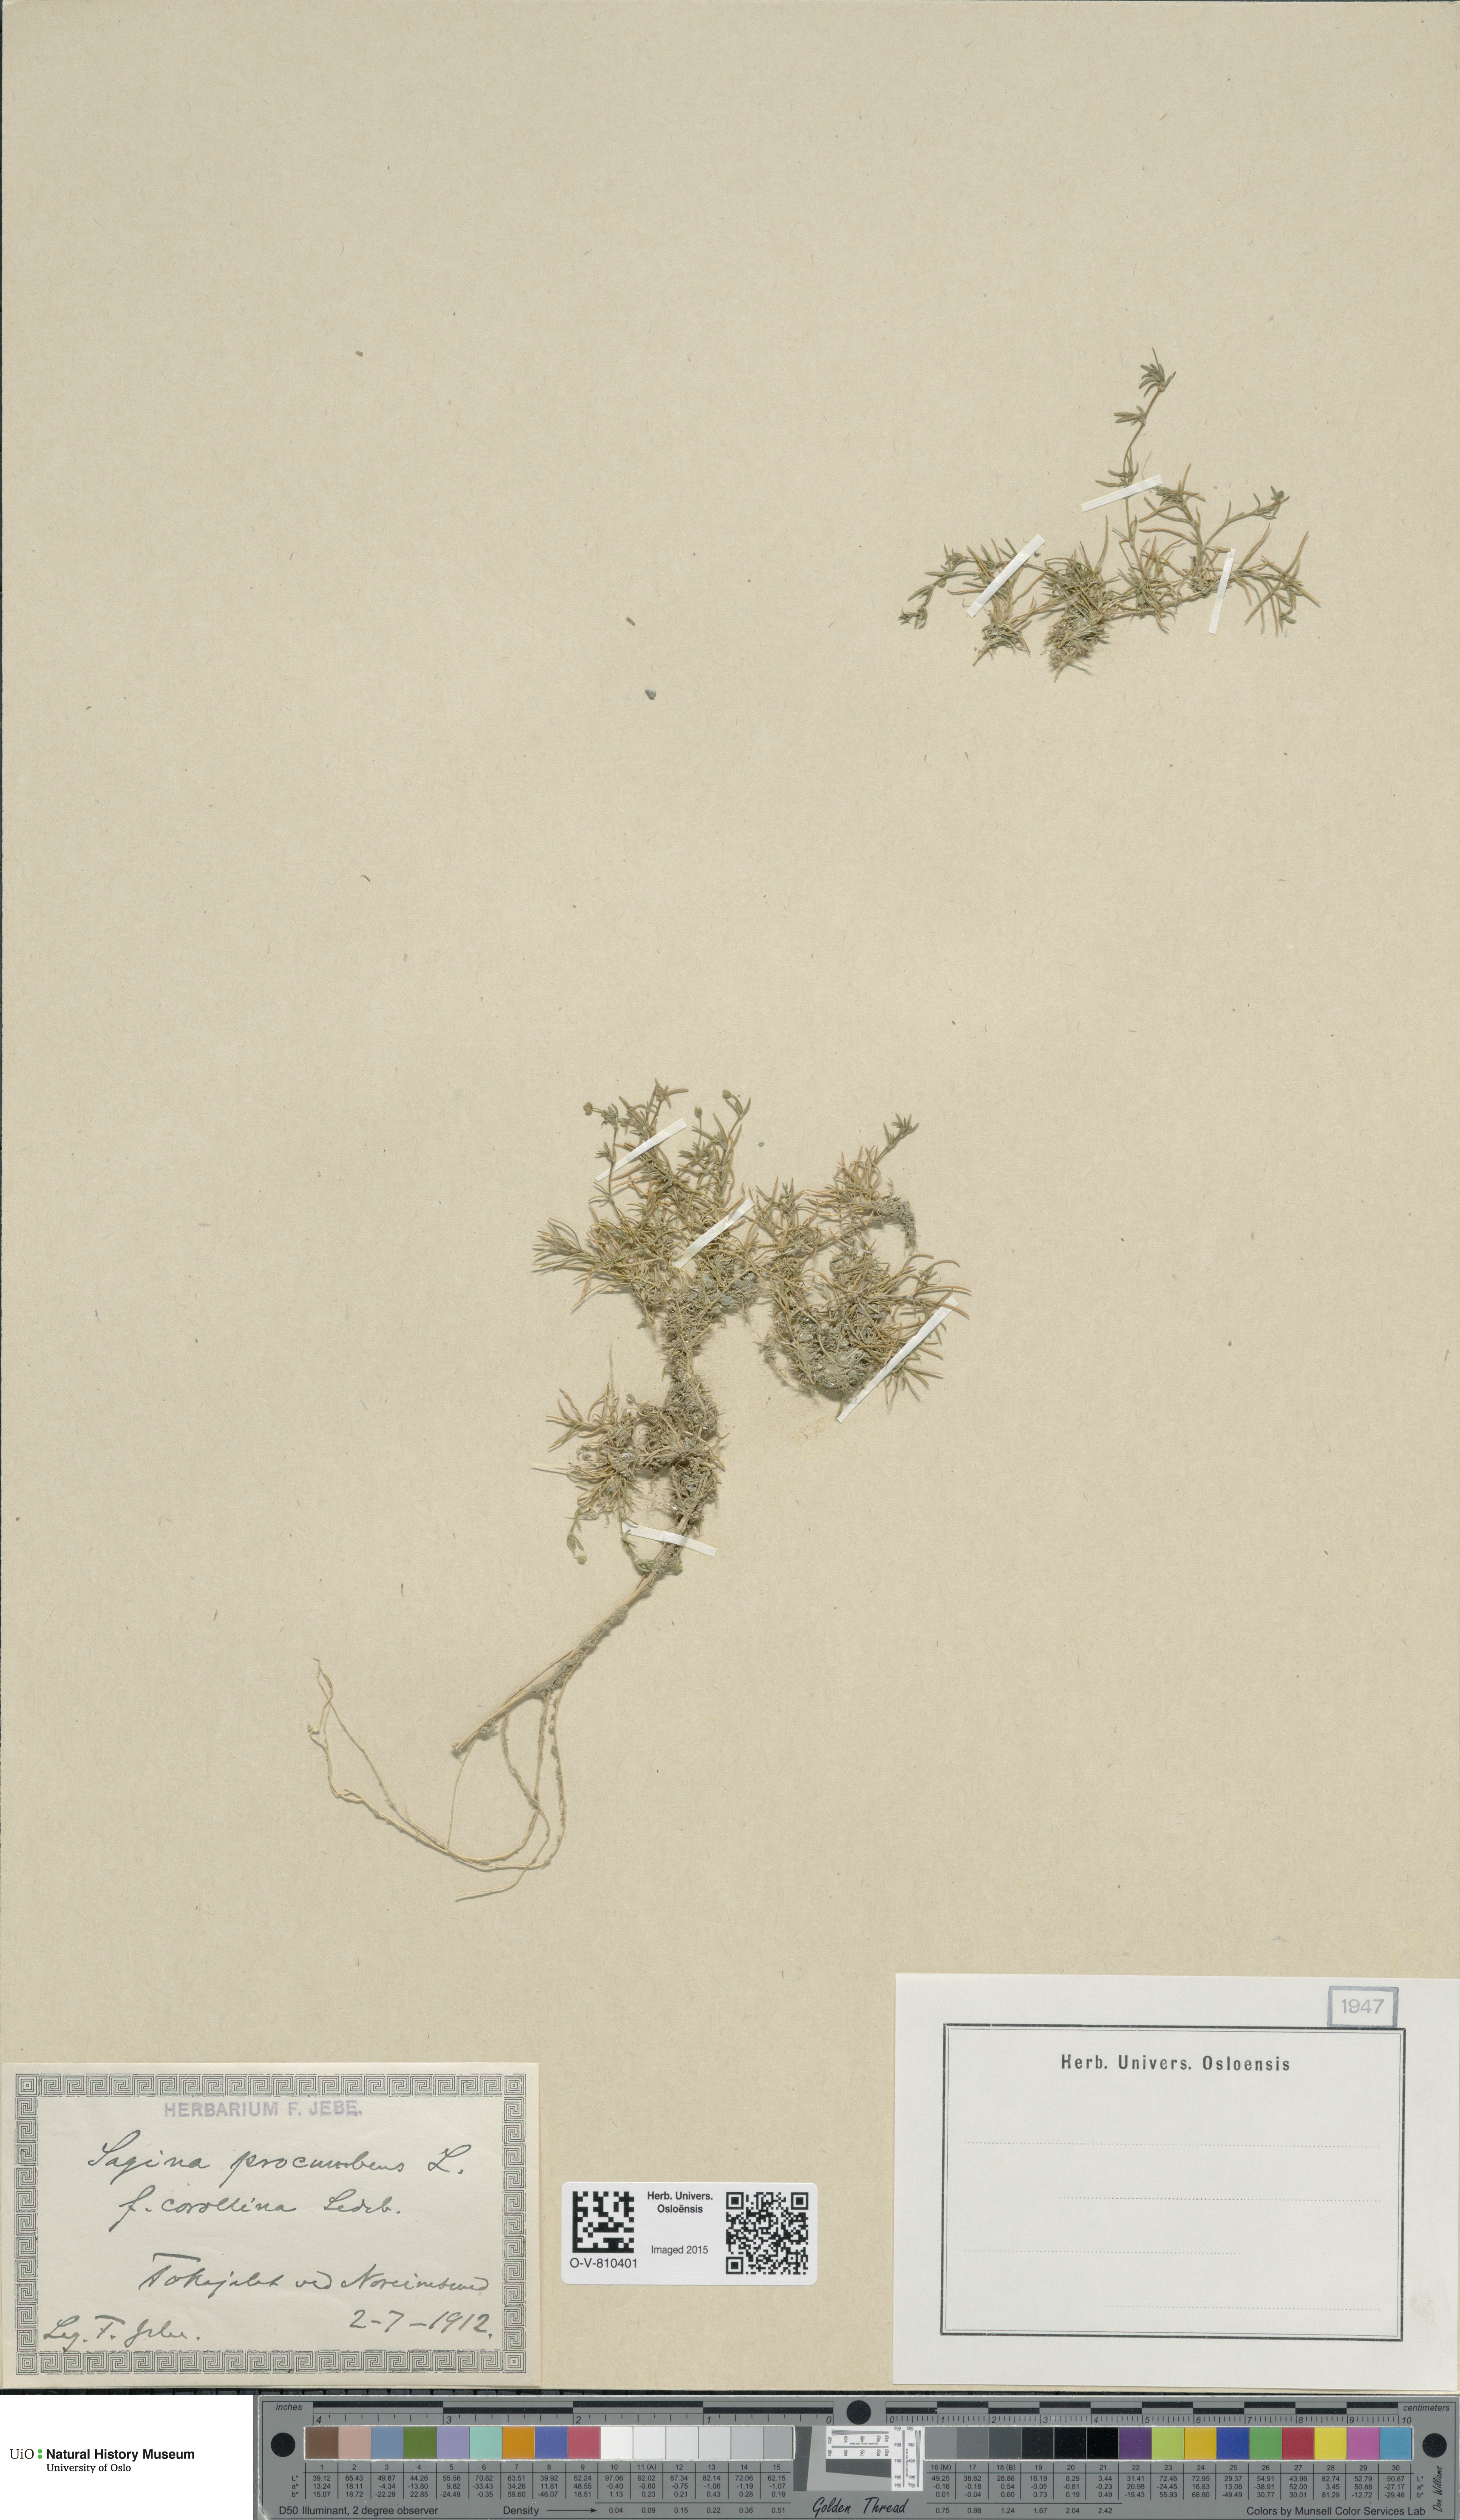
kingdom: Plantae
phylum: Tracheophyta
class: Magnoliopsida
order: Caryophyllales
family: Caryophyllaceae
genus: Sagina
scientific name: Sagina procumbens
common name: Procumbent pearlwort
